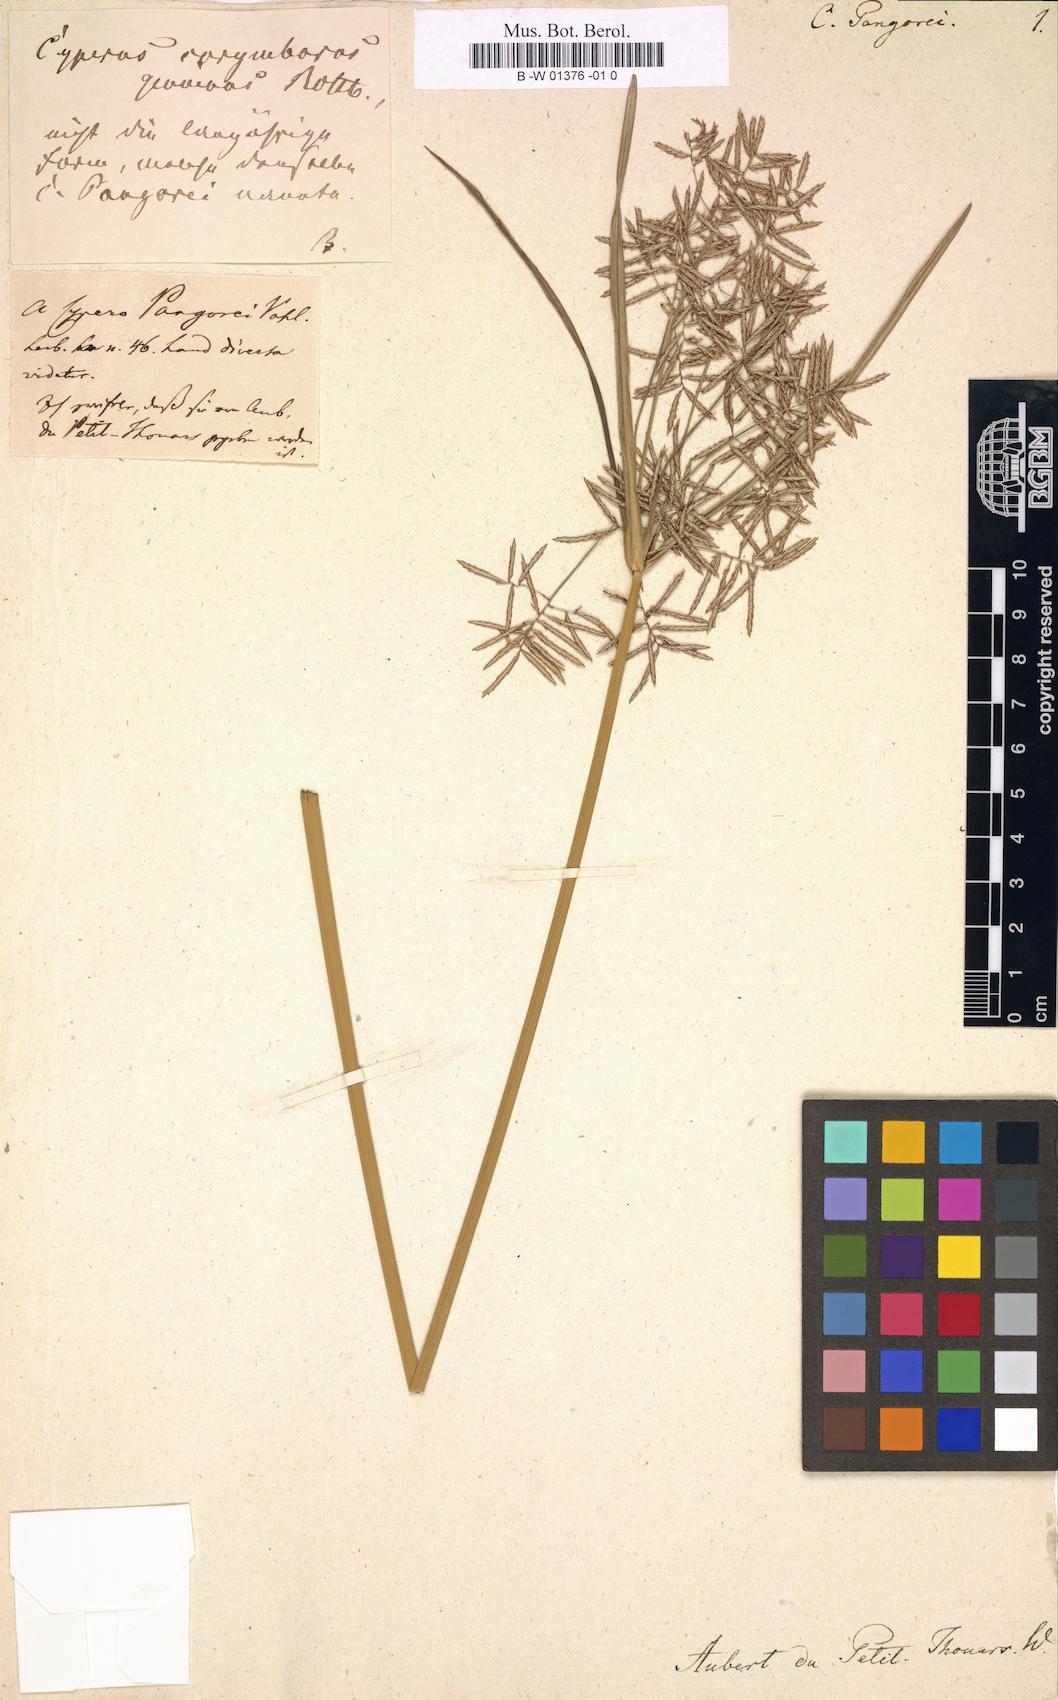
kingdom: Plantae
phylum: Tracheophyta
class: Liliopsida
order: Poales
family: Cyperaceae
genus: Cyperus
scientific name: Cyperus pangorei
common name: Mat sedge
